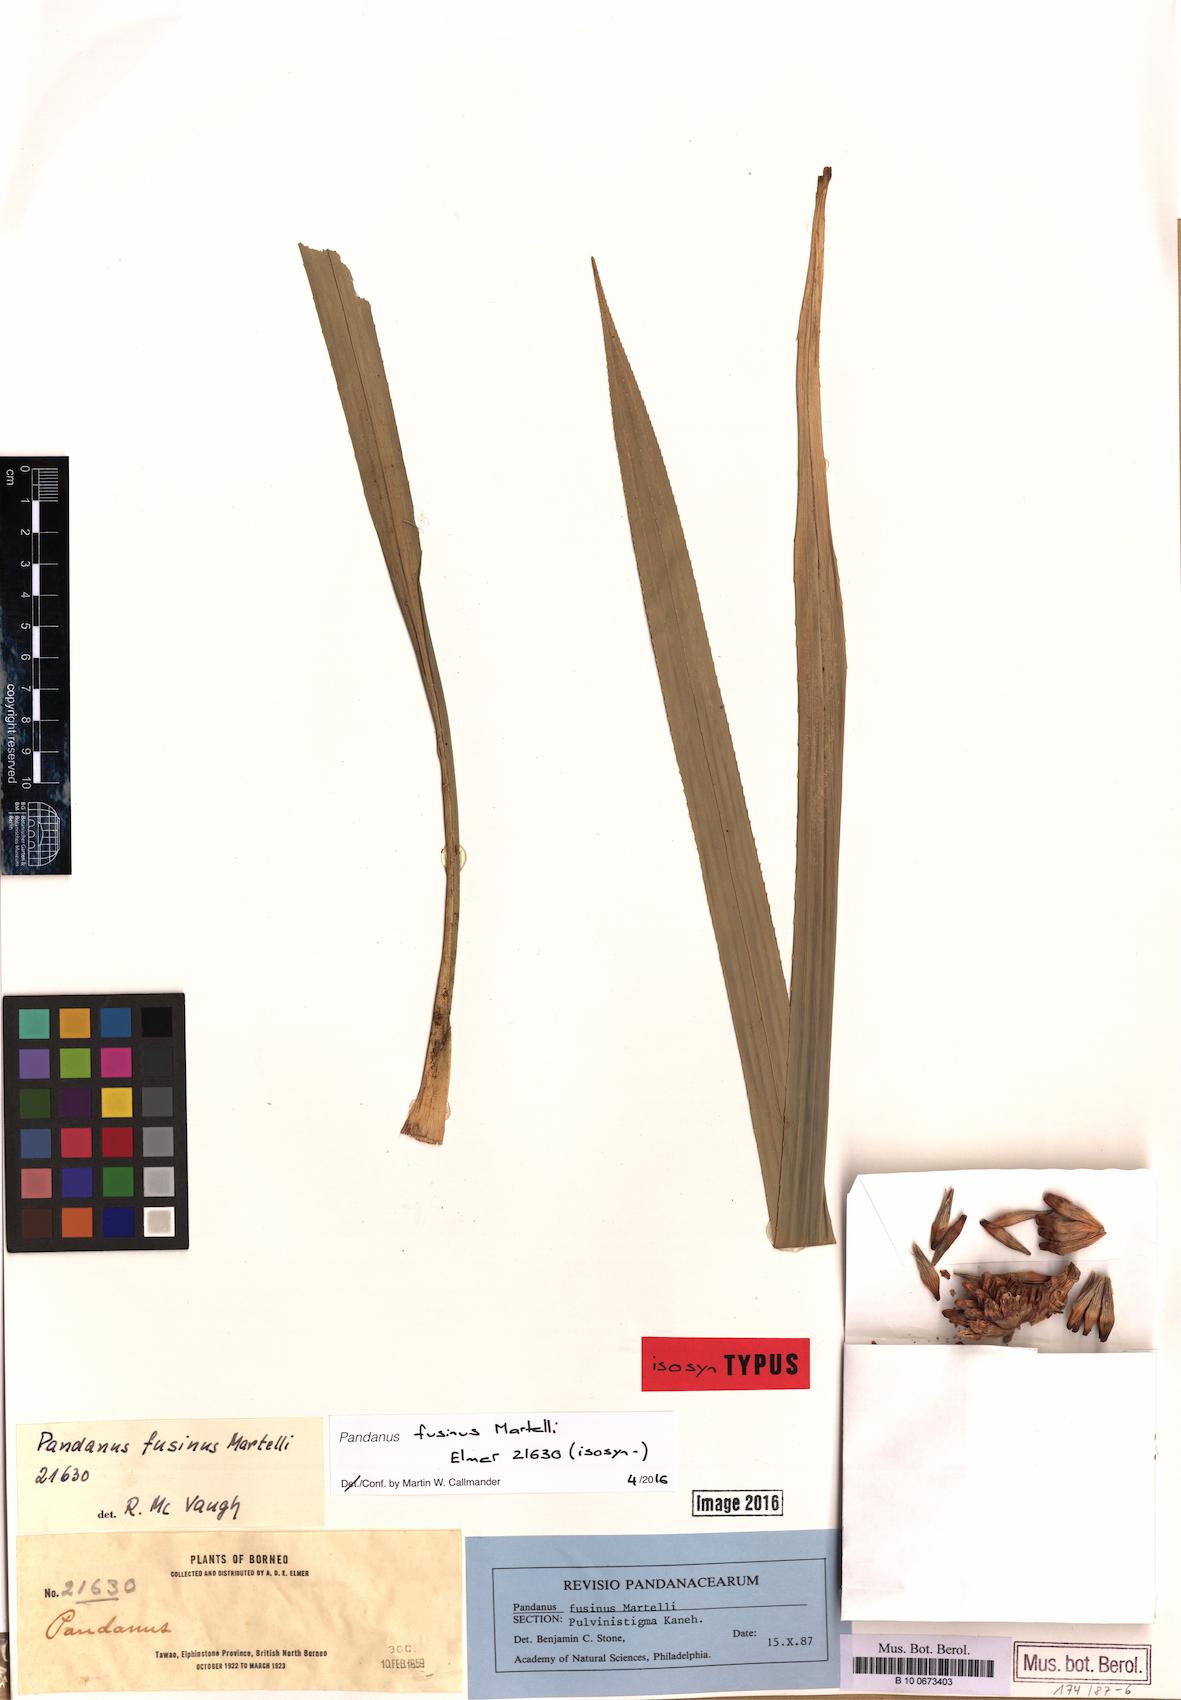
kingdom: Plantae
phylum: Tracheophyta
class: Liliopsida
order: Pandanales
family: Pandanaceae
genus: Pandanus
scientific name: Pandanus fusinus
